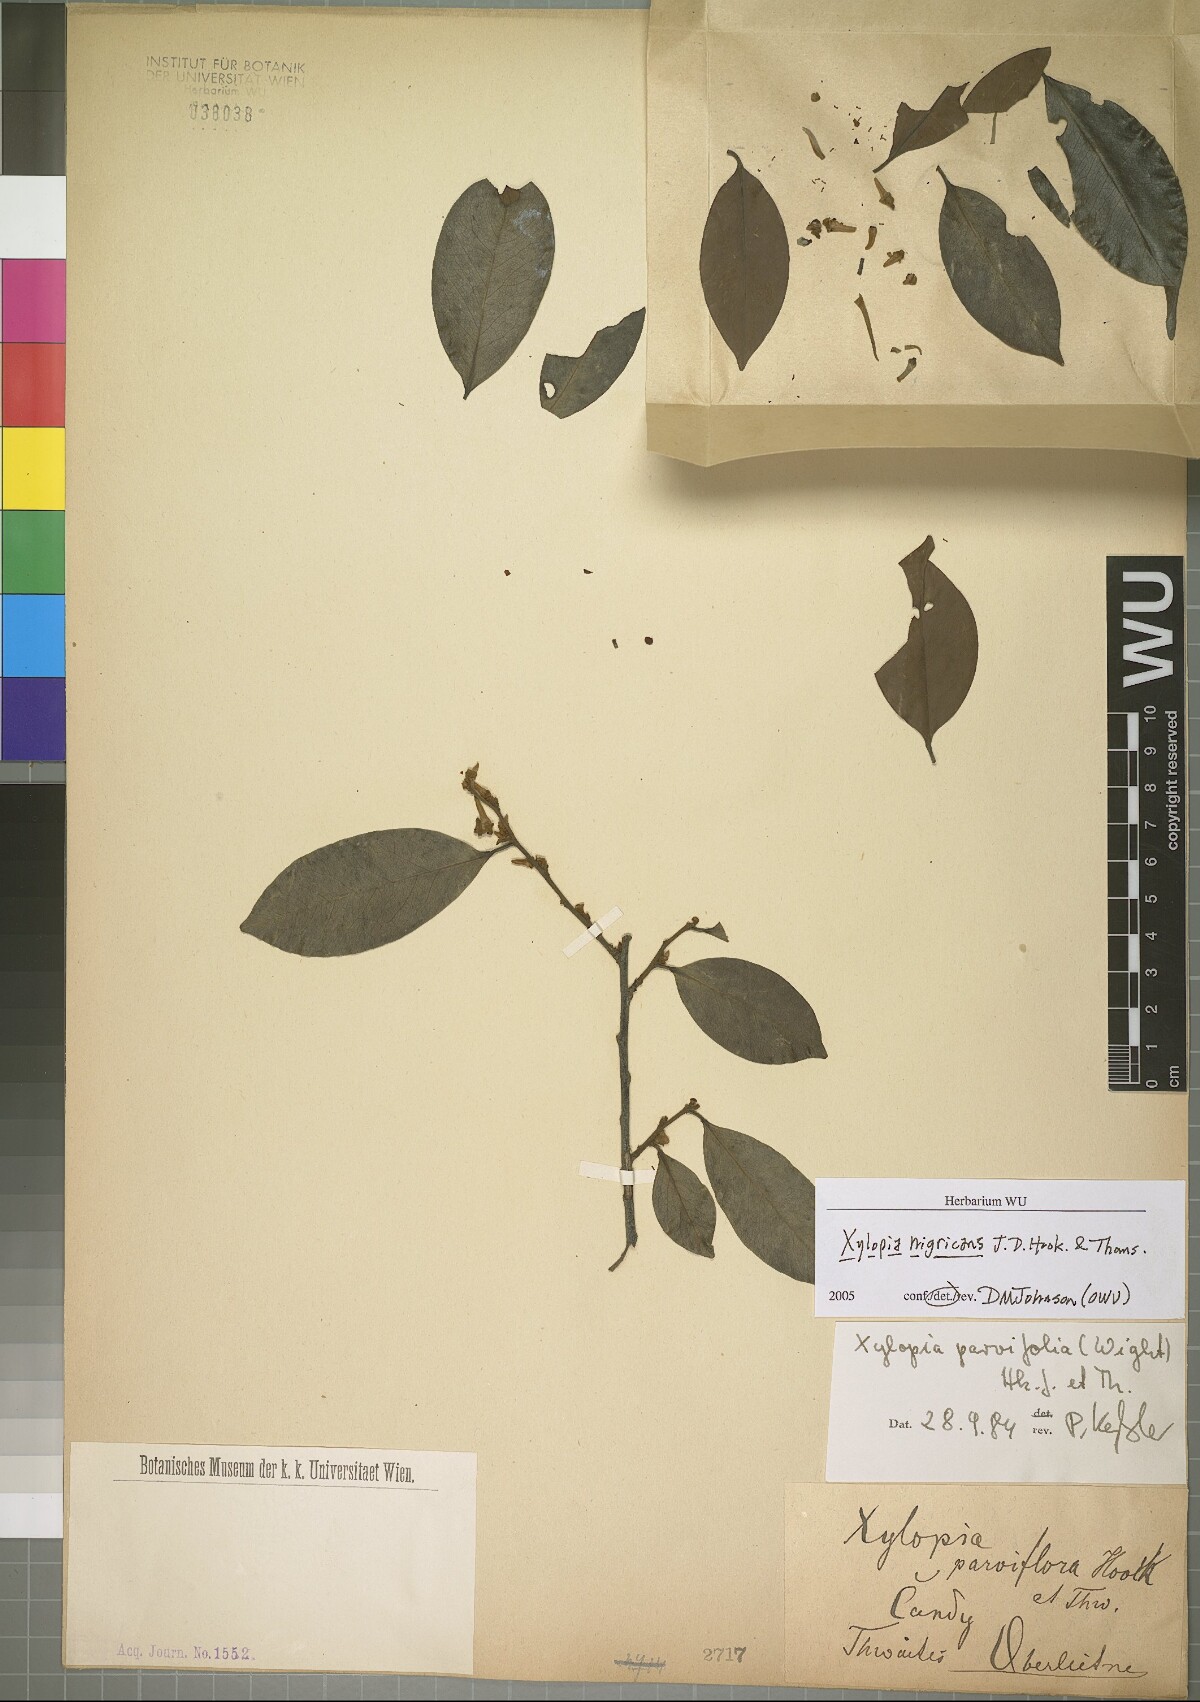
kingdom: Plantae
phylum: Tracheophyta
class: Magnoliopsida
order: Magnoliales
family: Annonaceae
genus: Xylopia
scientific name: Xylopia nigricans
